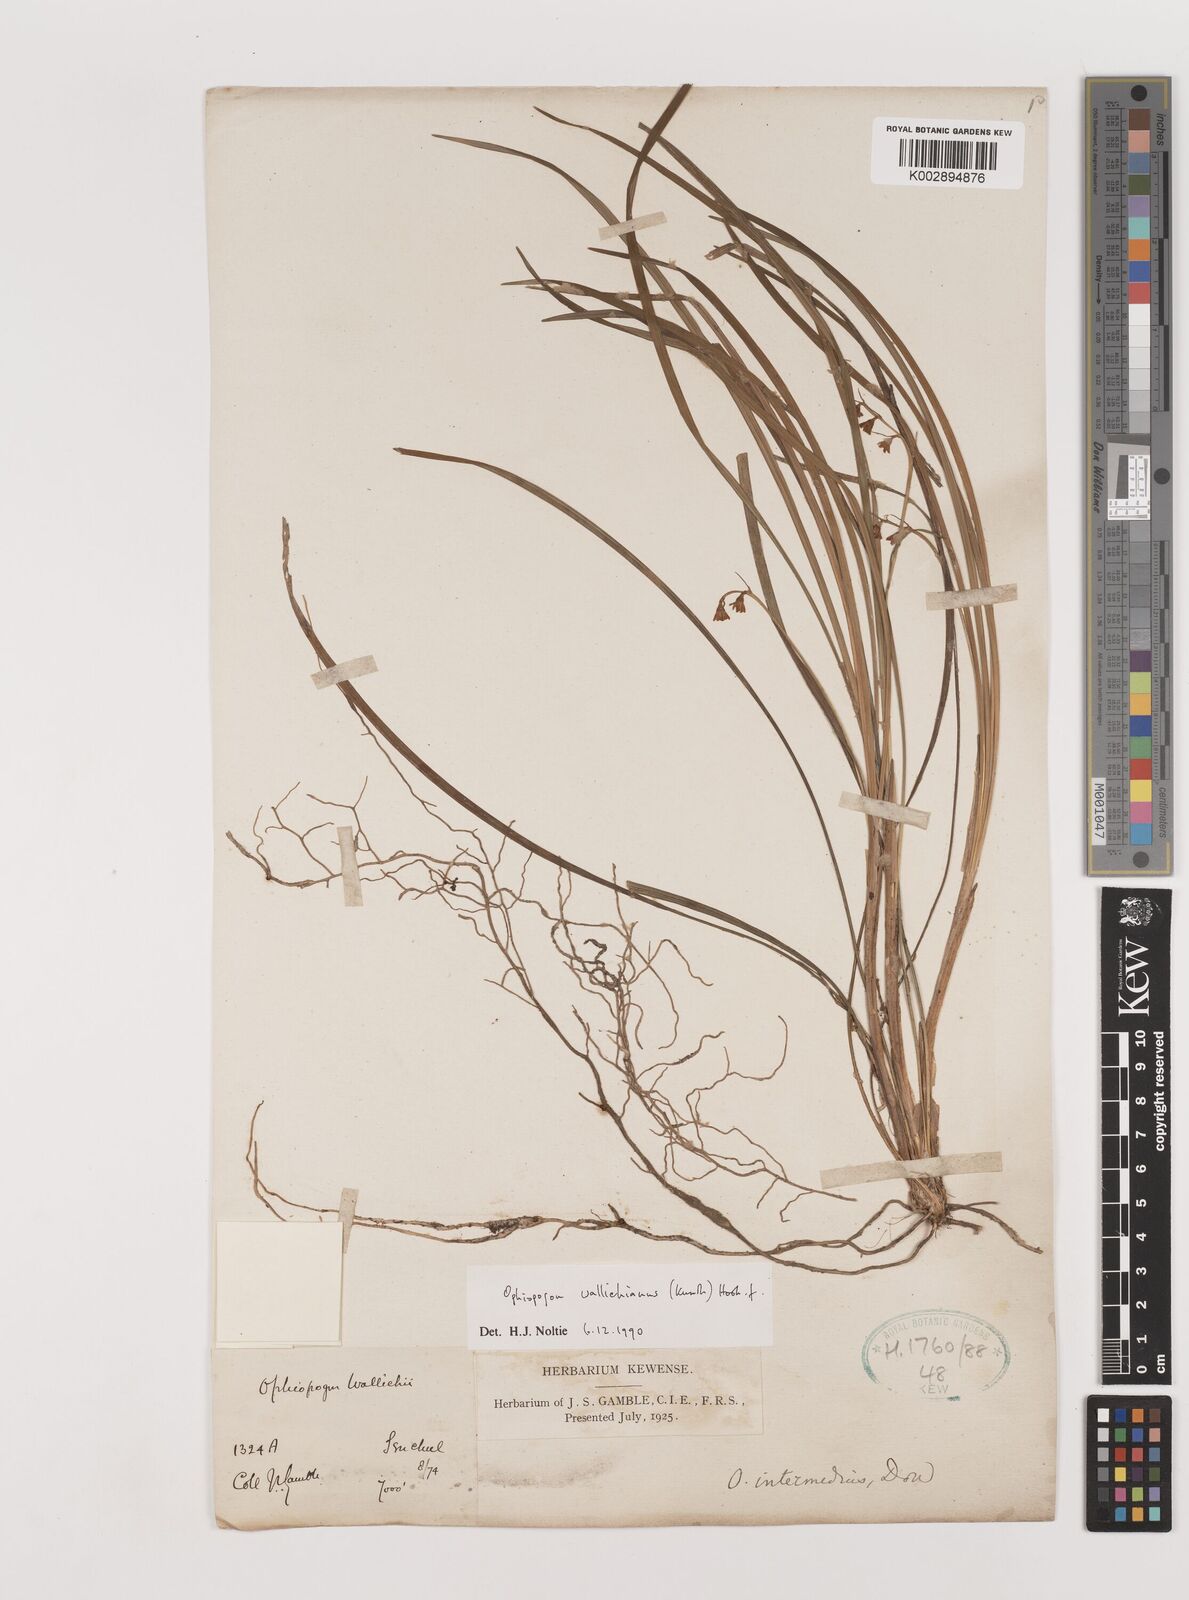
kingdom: Plantae
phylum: Tracheophyta
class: Liliopsida
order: Asparagales
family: Asparagaceae
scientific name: Asparagaceae
